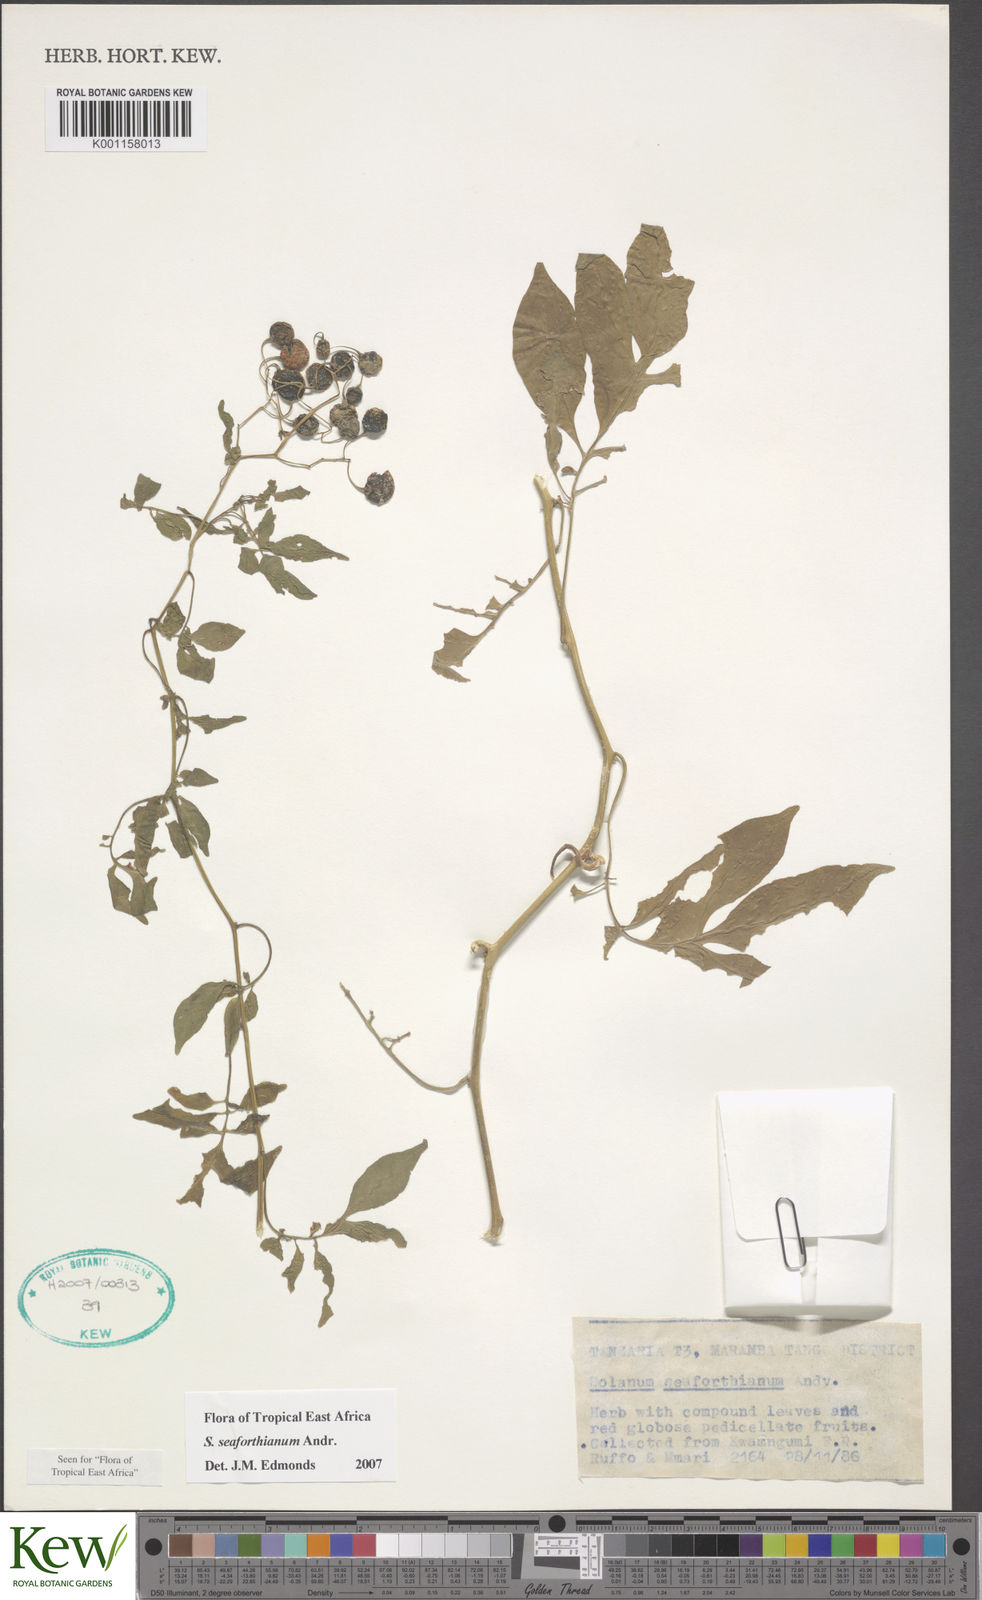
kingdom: Plantae
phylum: Tracheophyta
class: Magnoliopsida
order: Solanales
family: Solanaceae
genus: Solanum
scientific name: Solanum seaforthianum
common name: Brazilian nightshade
